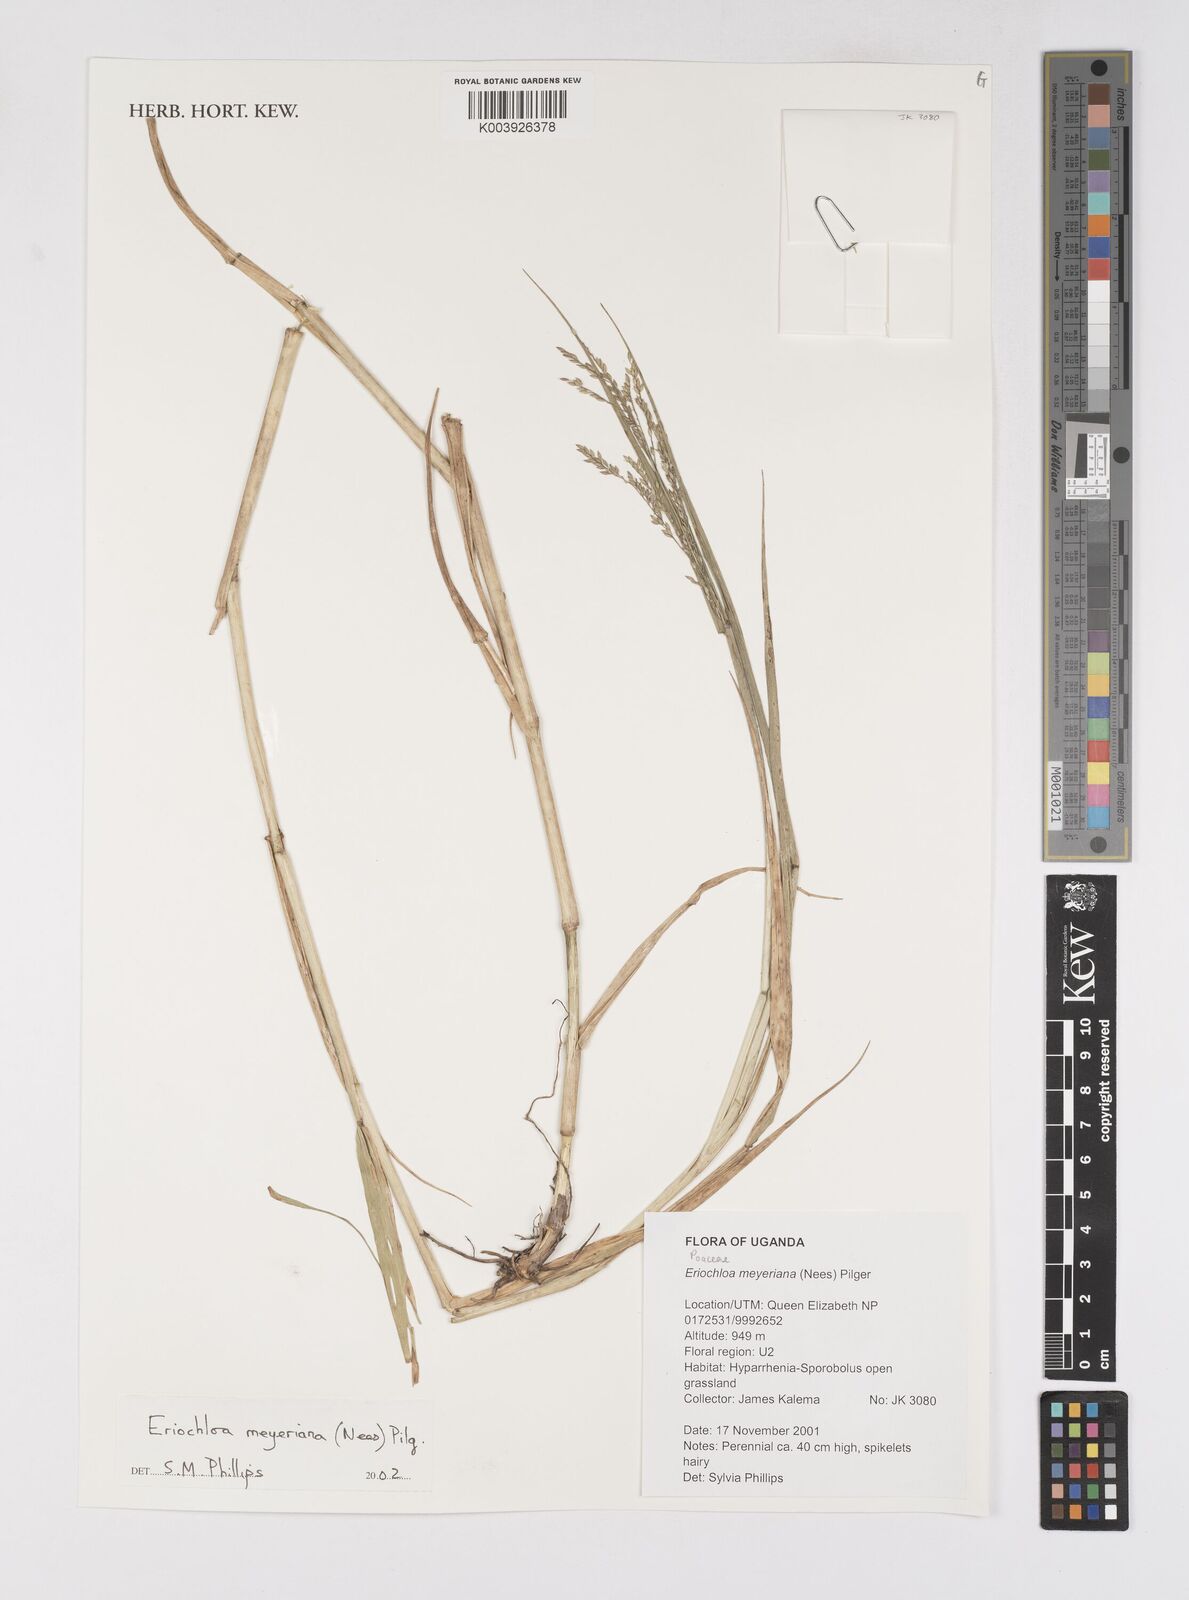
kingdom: Plantae
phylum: Tracheophyta
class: Liliopsida
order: Poales
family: Poaceae
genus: Eriochloa
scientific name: Eriochloa meyeriana
